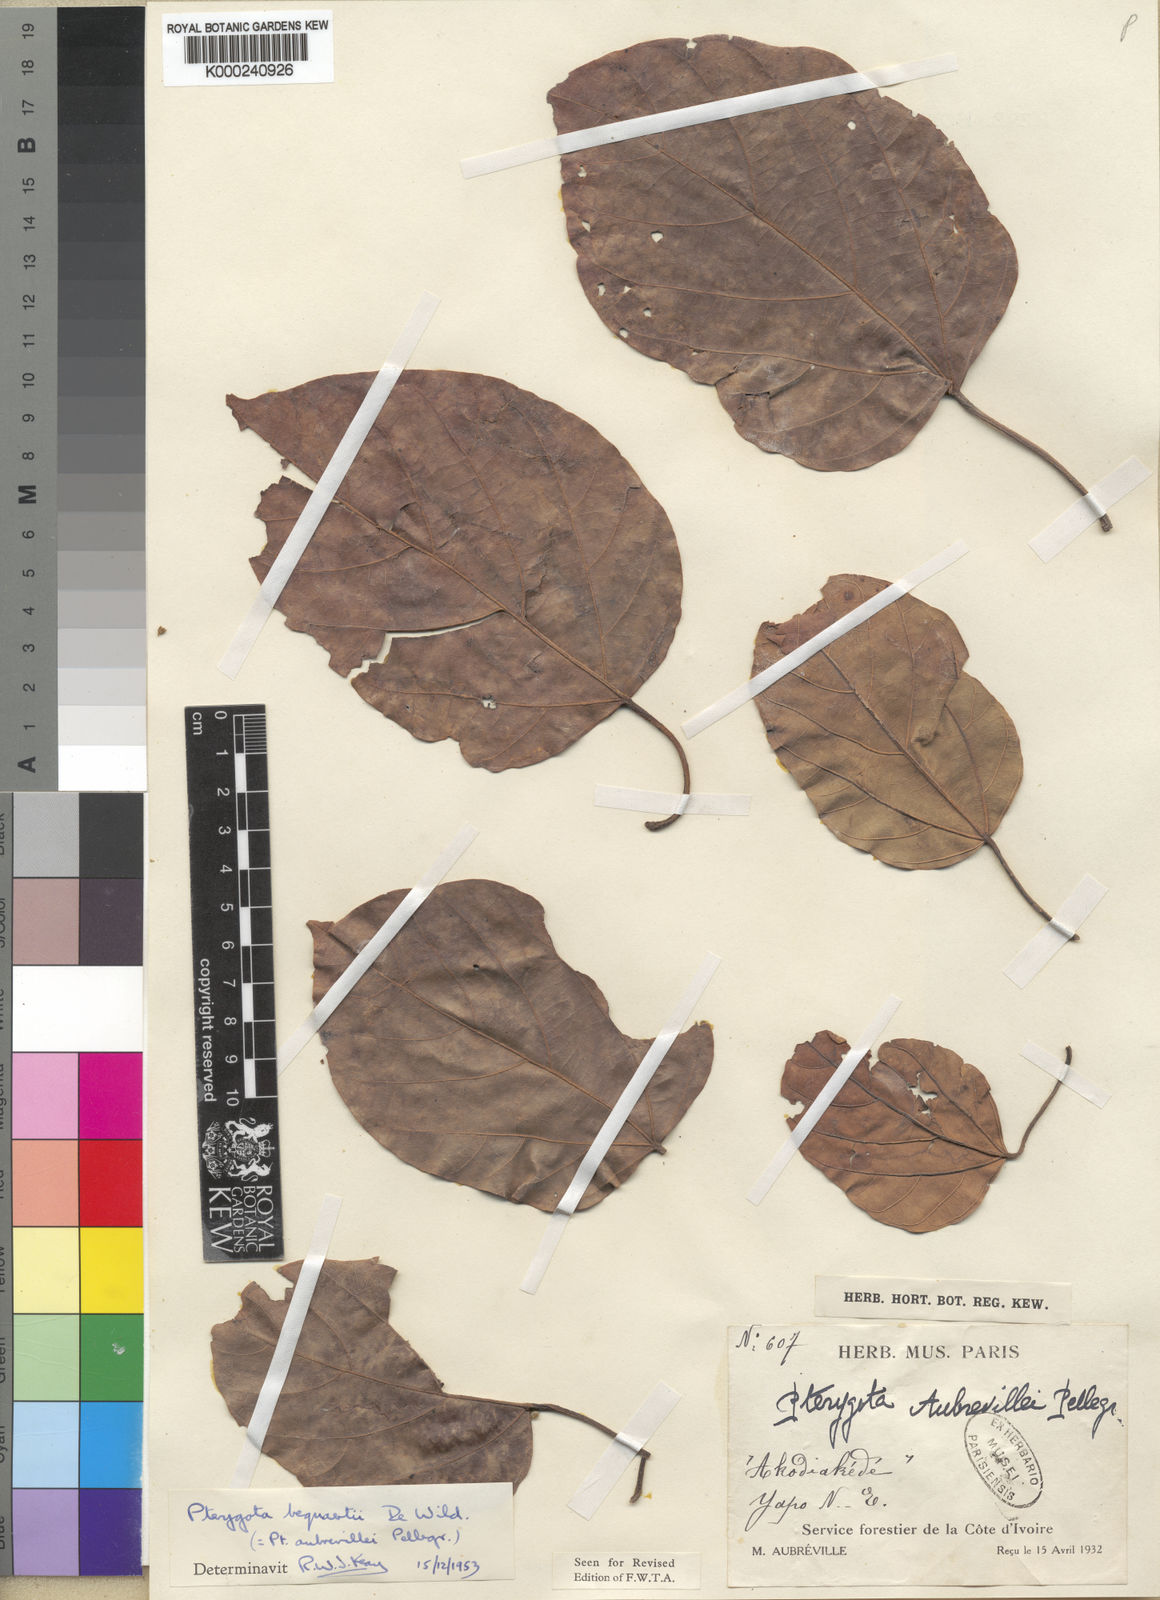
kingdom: Plantae
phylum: Tracheophyta
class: Magnoliopsida
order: Malvales
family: Malvaceae
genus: Pterygota
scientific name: Pterygota bequaertii
